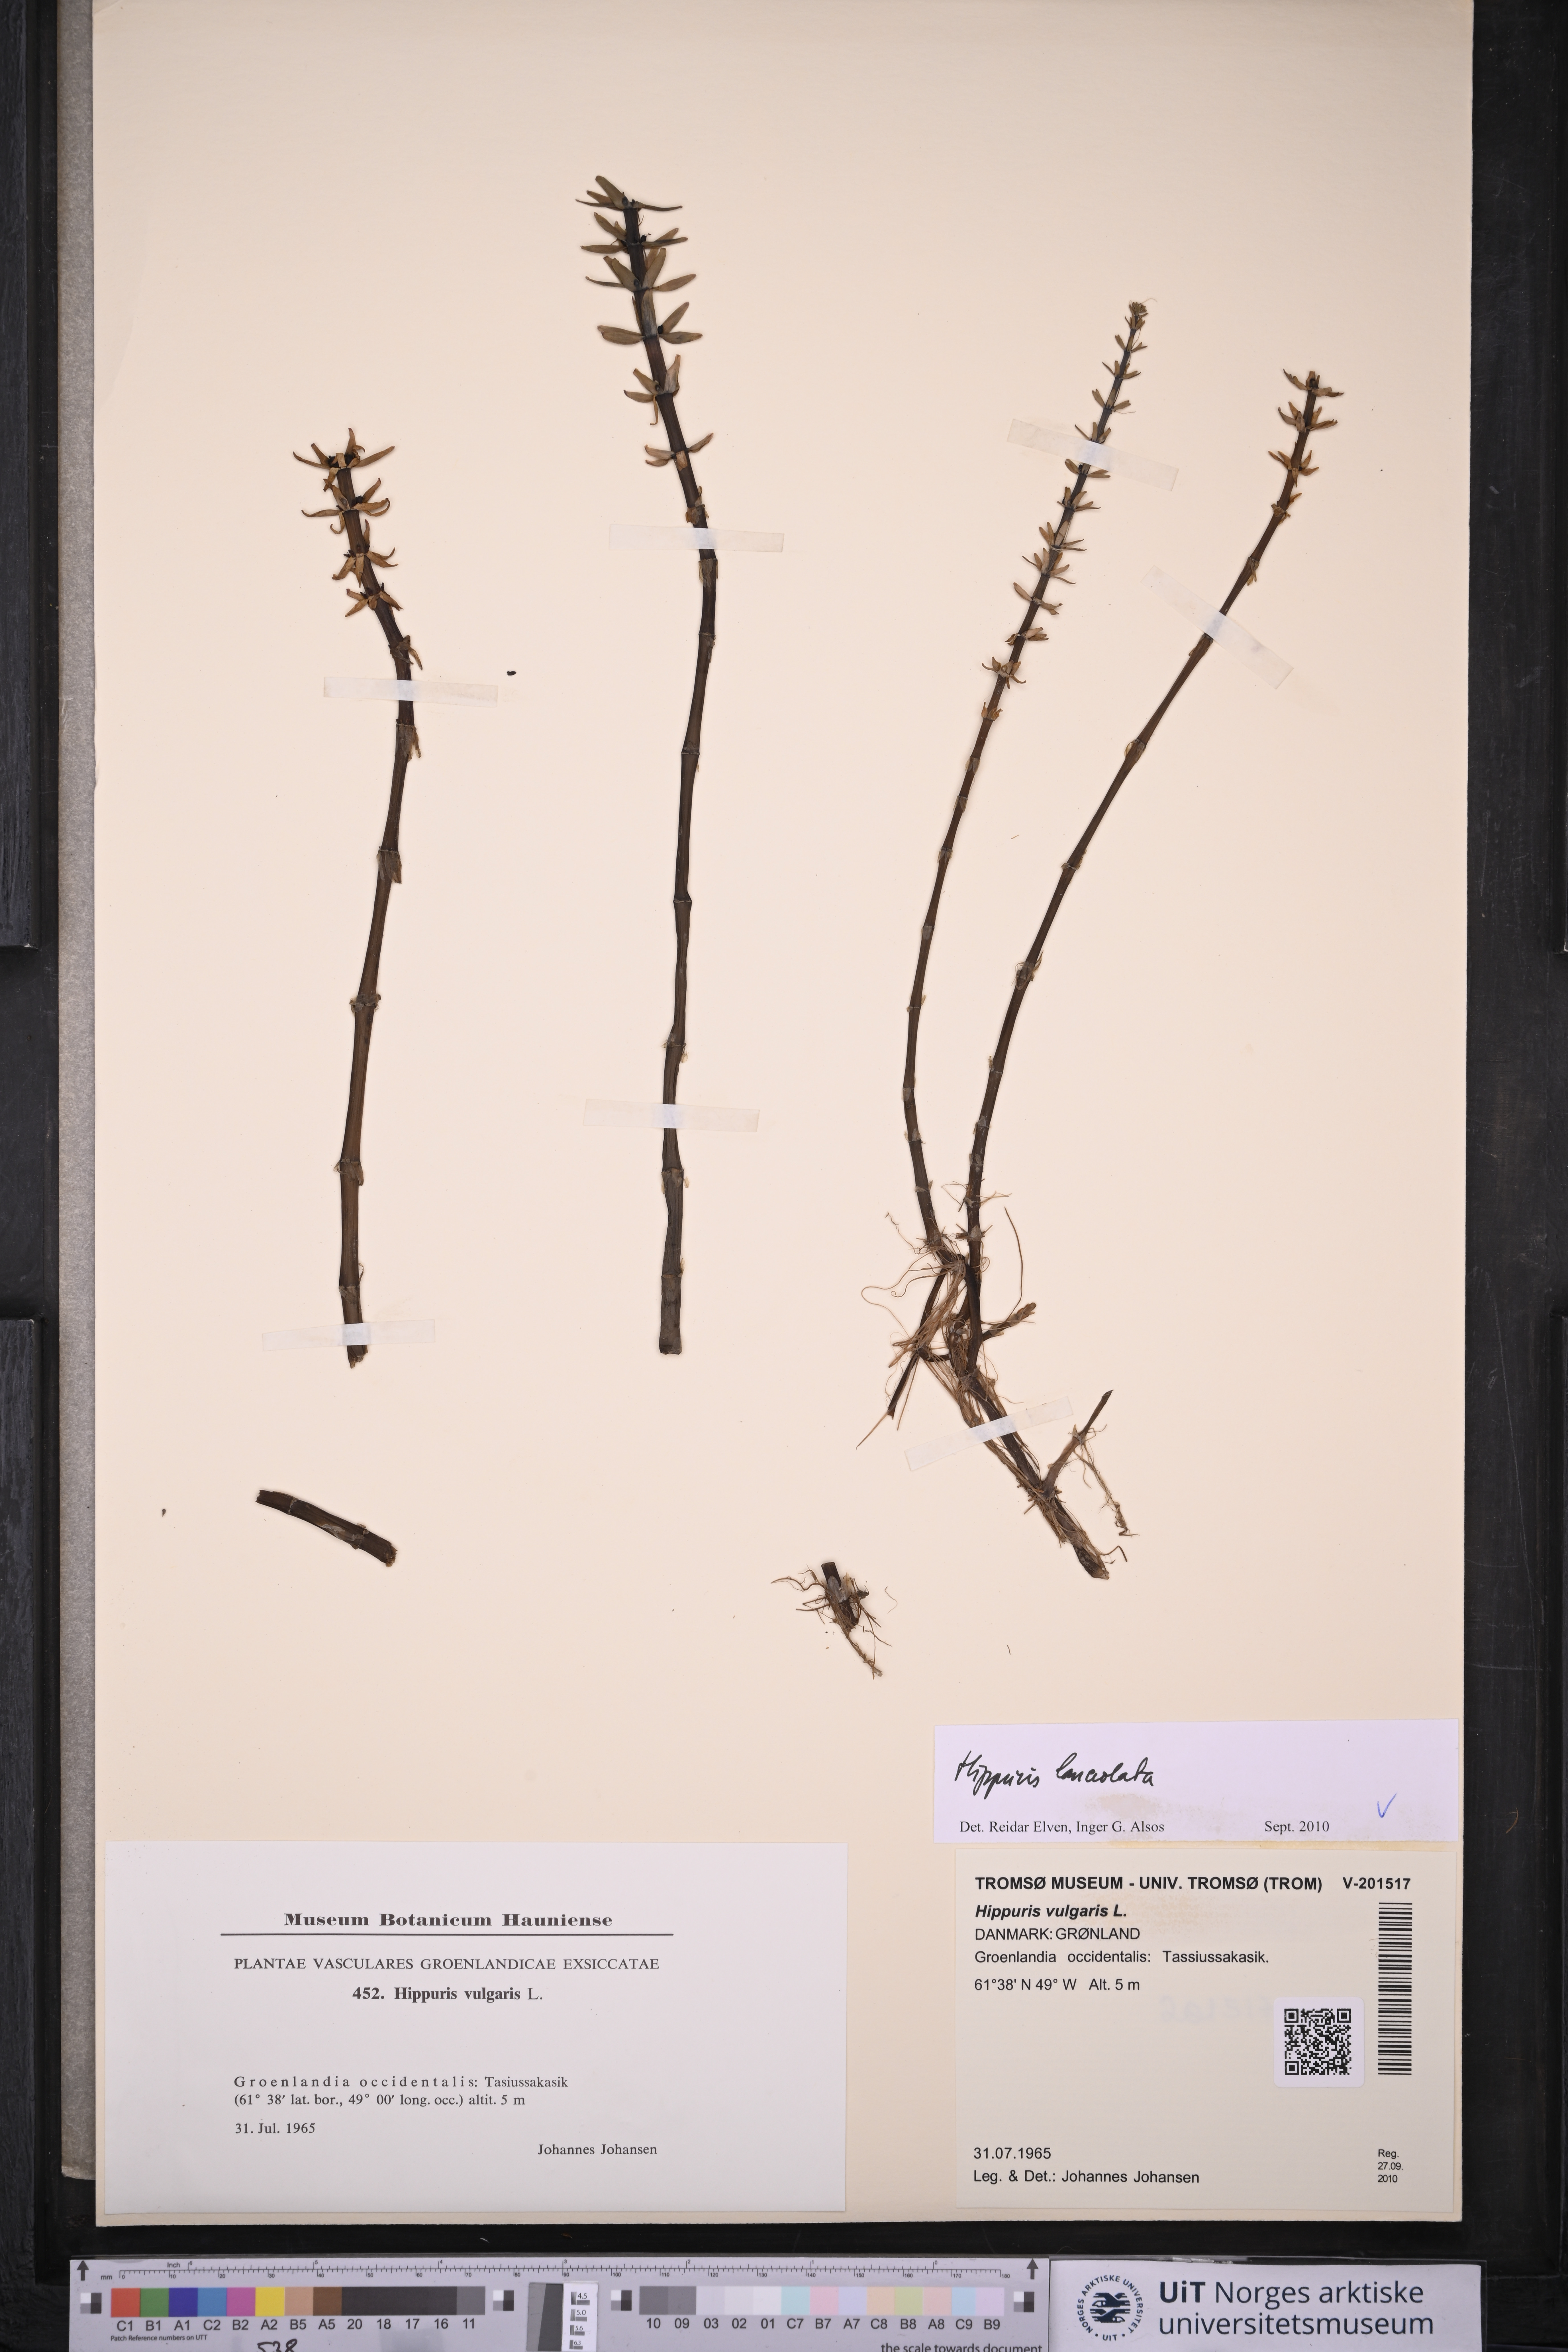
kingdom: Plantae
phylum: Tracheophyta
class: Magnoliopsida
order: Lamiales
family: Plantaginaceae
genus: Hippuris
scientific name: Hippuris lanceolata
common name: Lance-leaved mare's-tail
